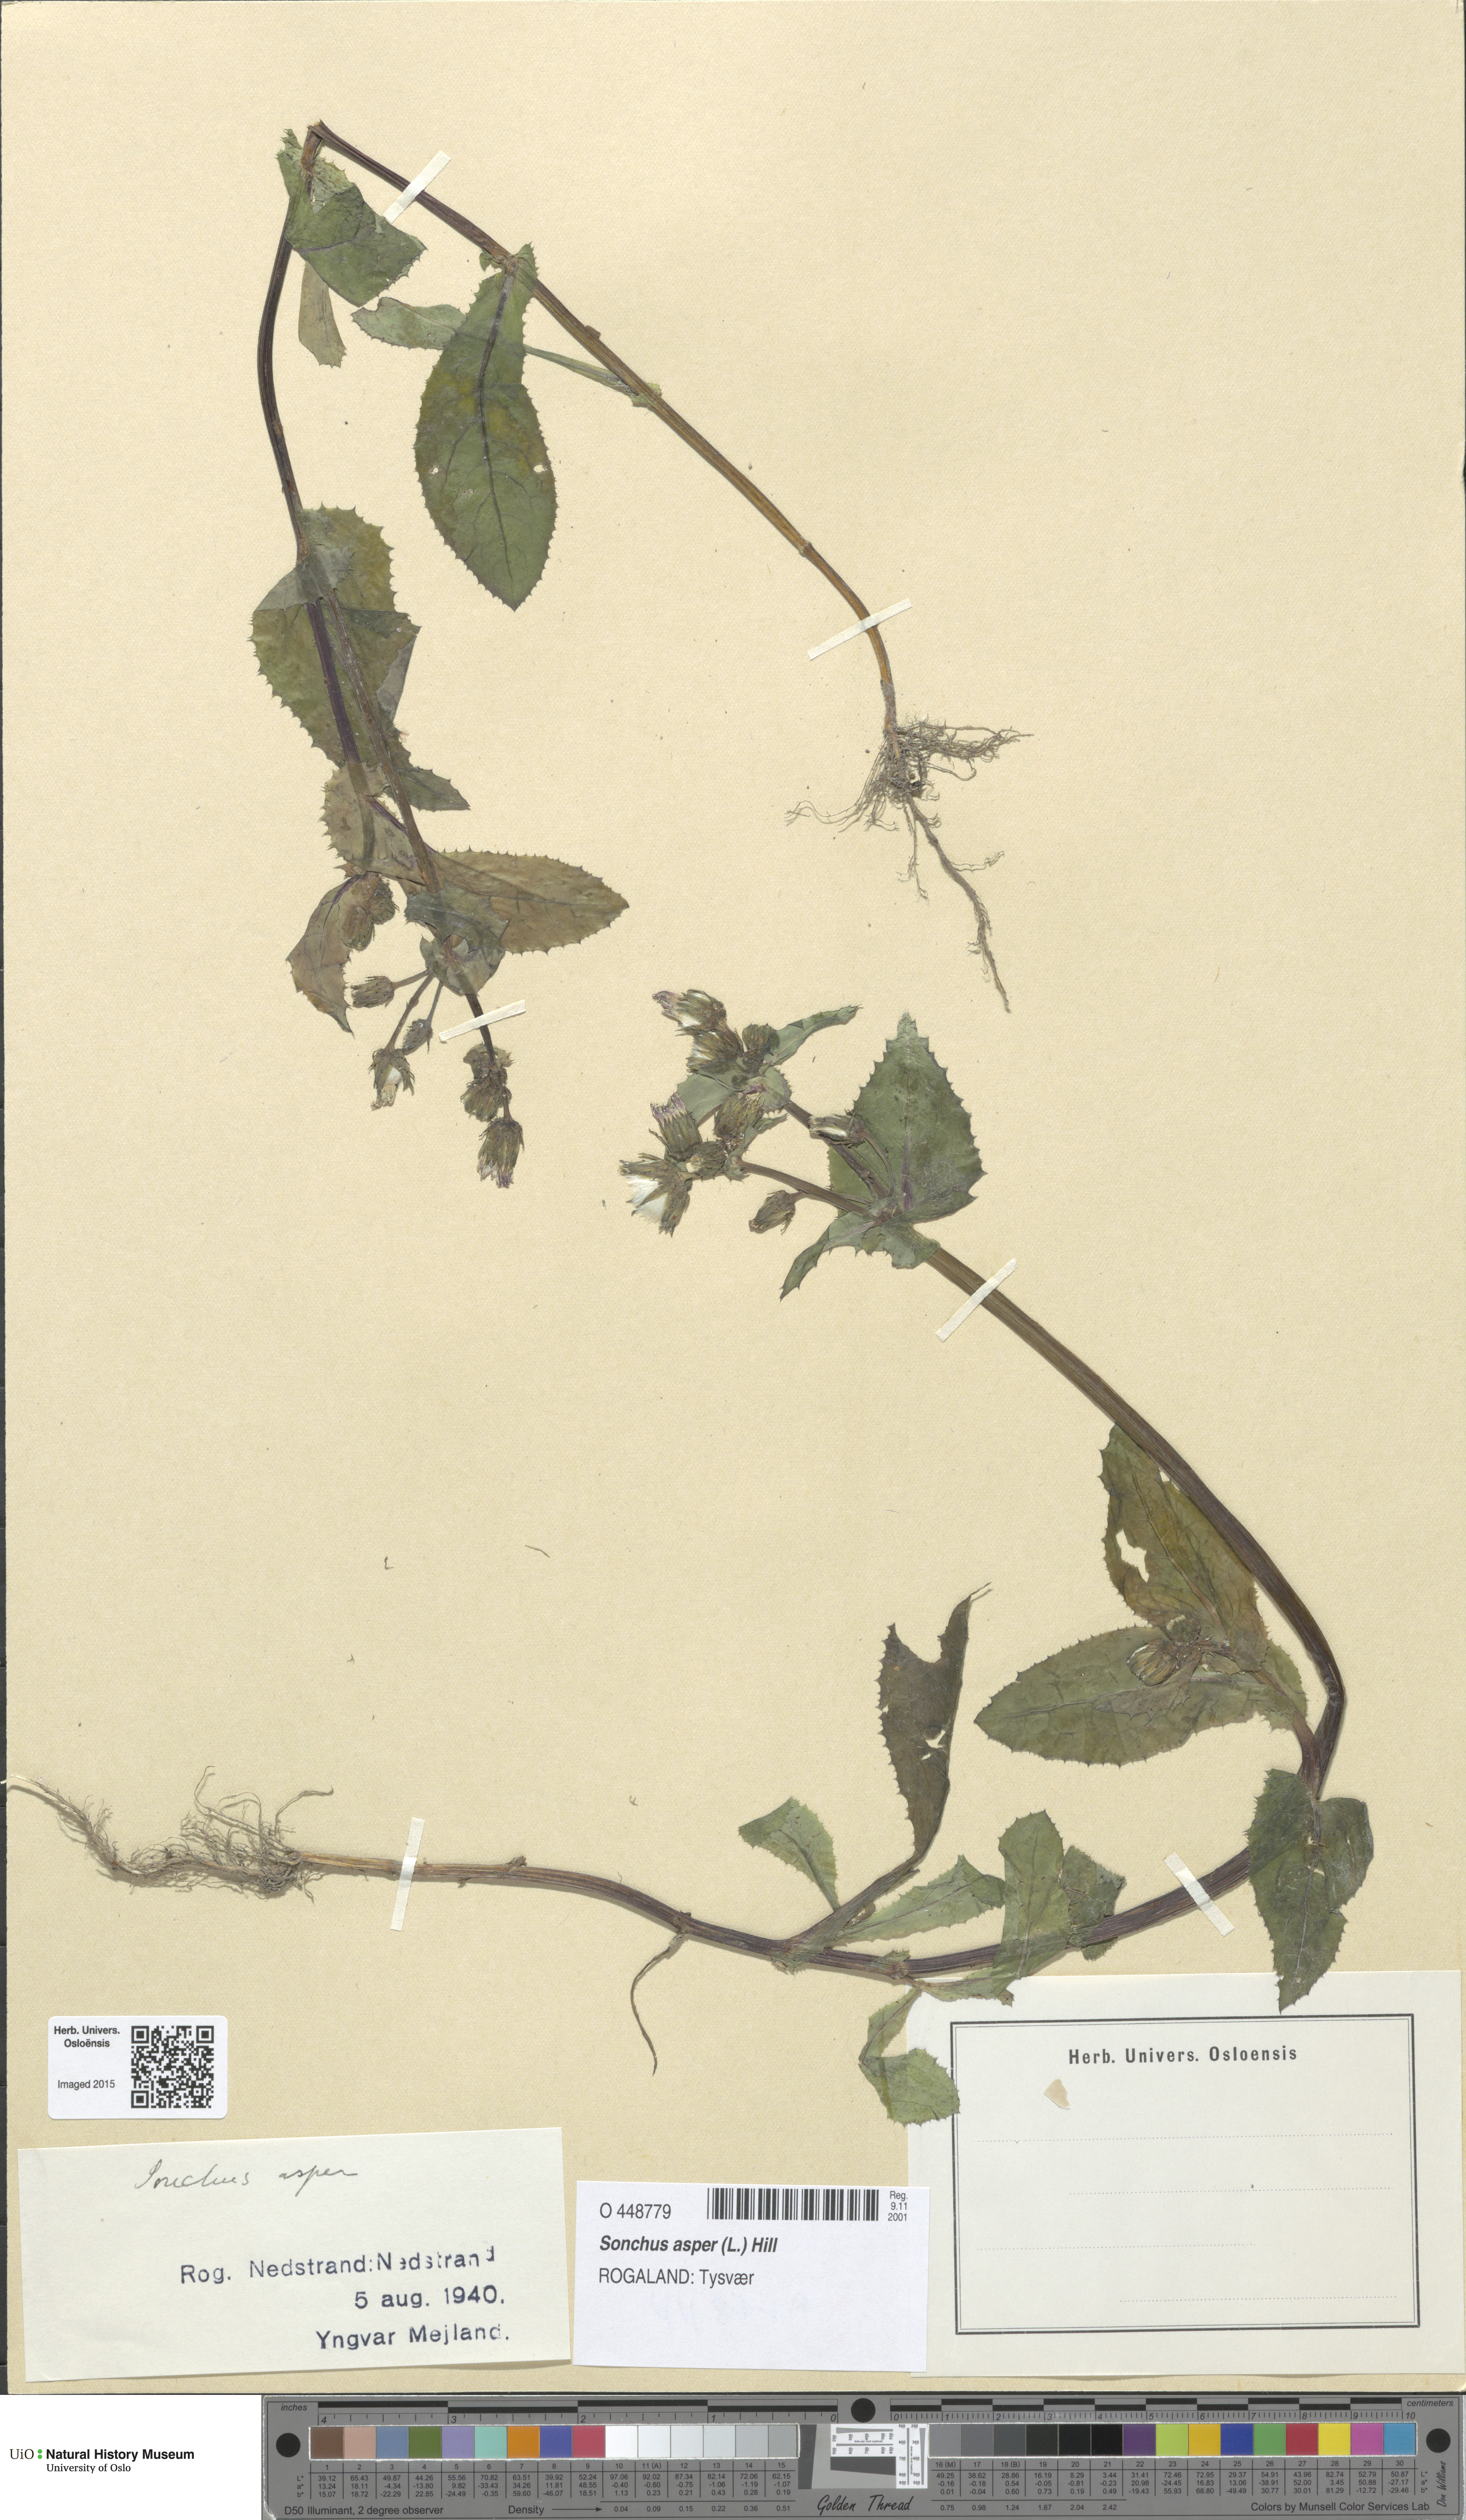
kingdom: Plantae
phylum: Tracheophyta
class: Magnoliopsida
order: Asterales
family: Asteraceae
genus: Sonchus
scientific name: Sonchus asper
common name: Prickly sow-thistle
